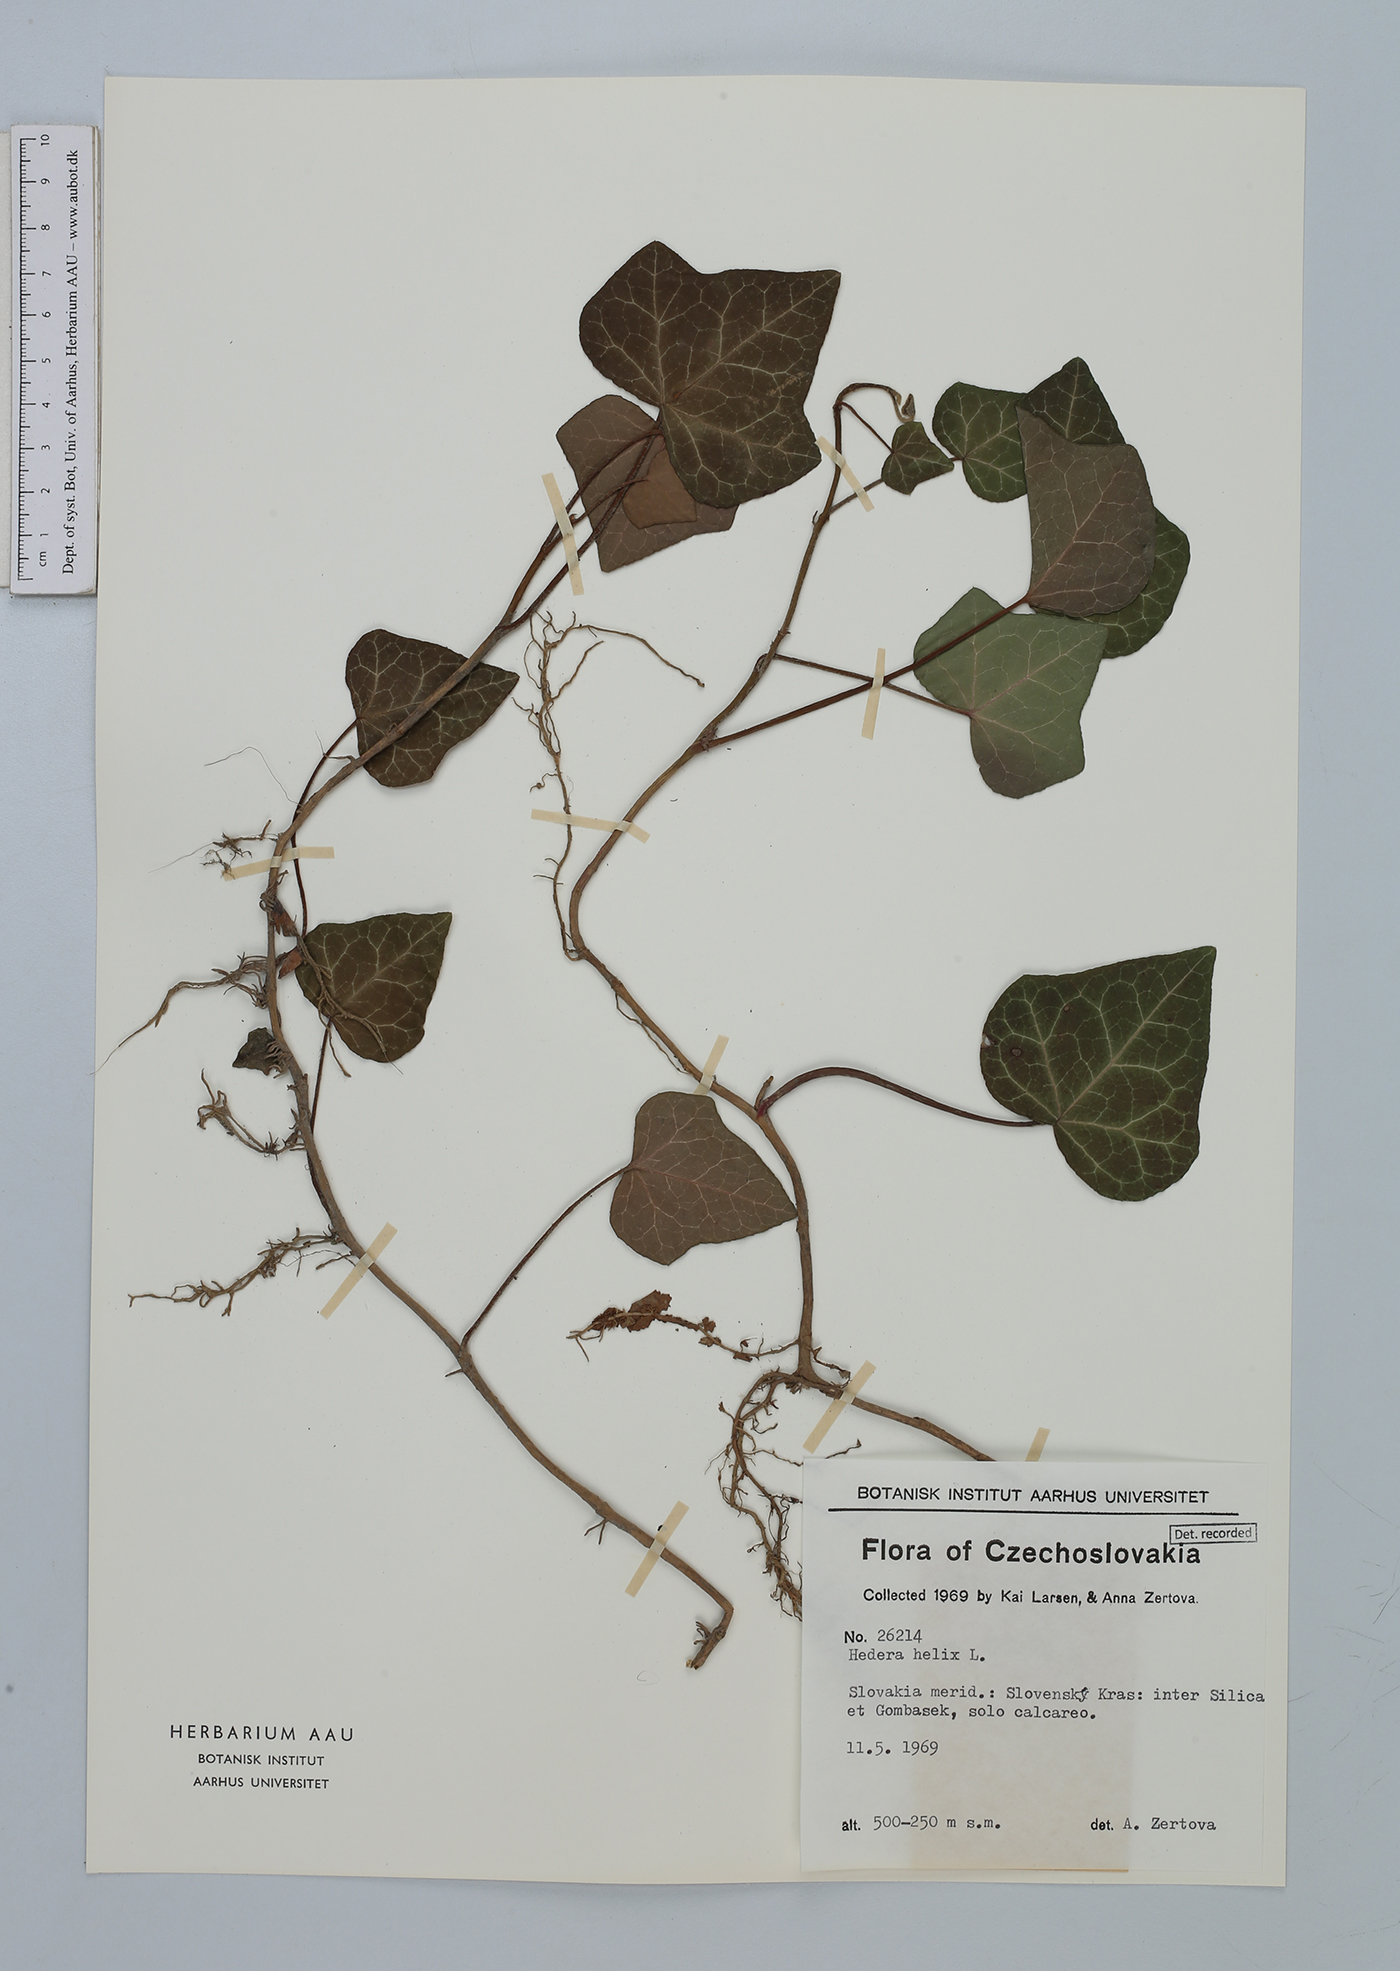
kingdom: Plantae
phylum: Tracheophyta
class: Magnoliopsida
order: Apiales
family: Araliaceae
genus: Hedera
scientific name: Hedera helix
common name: Ivy
